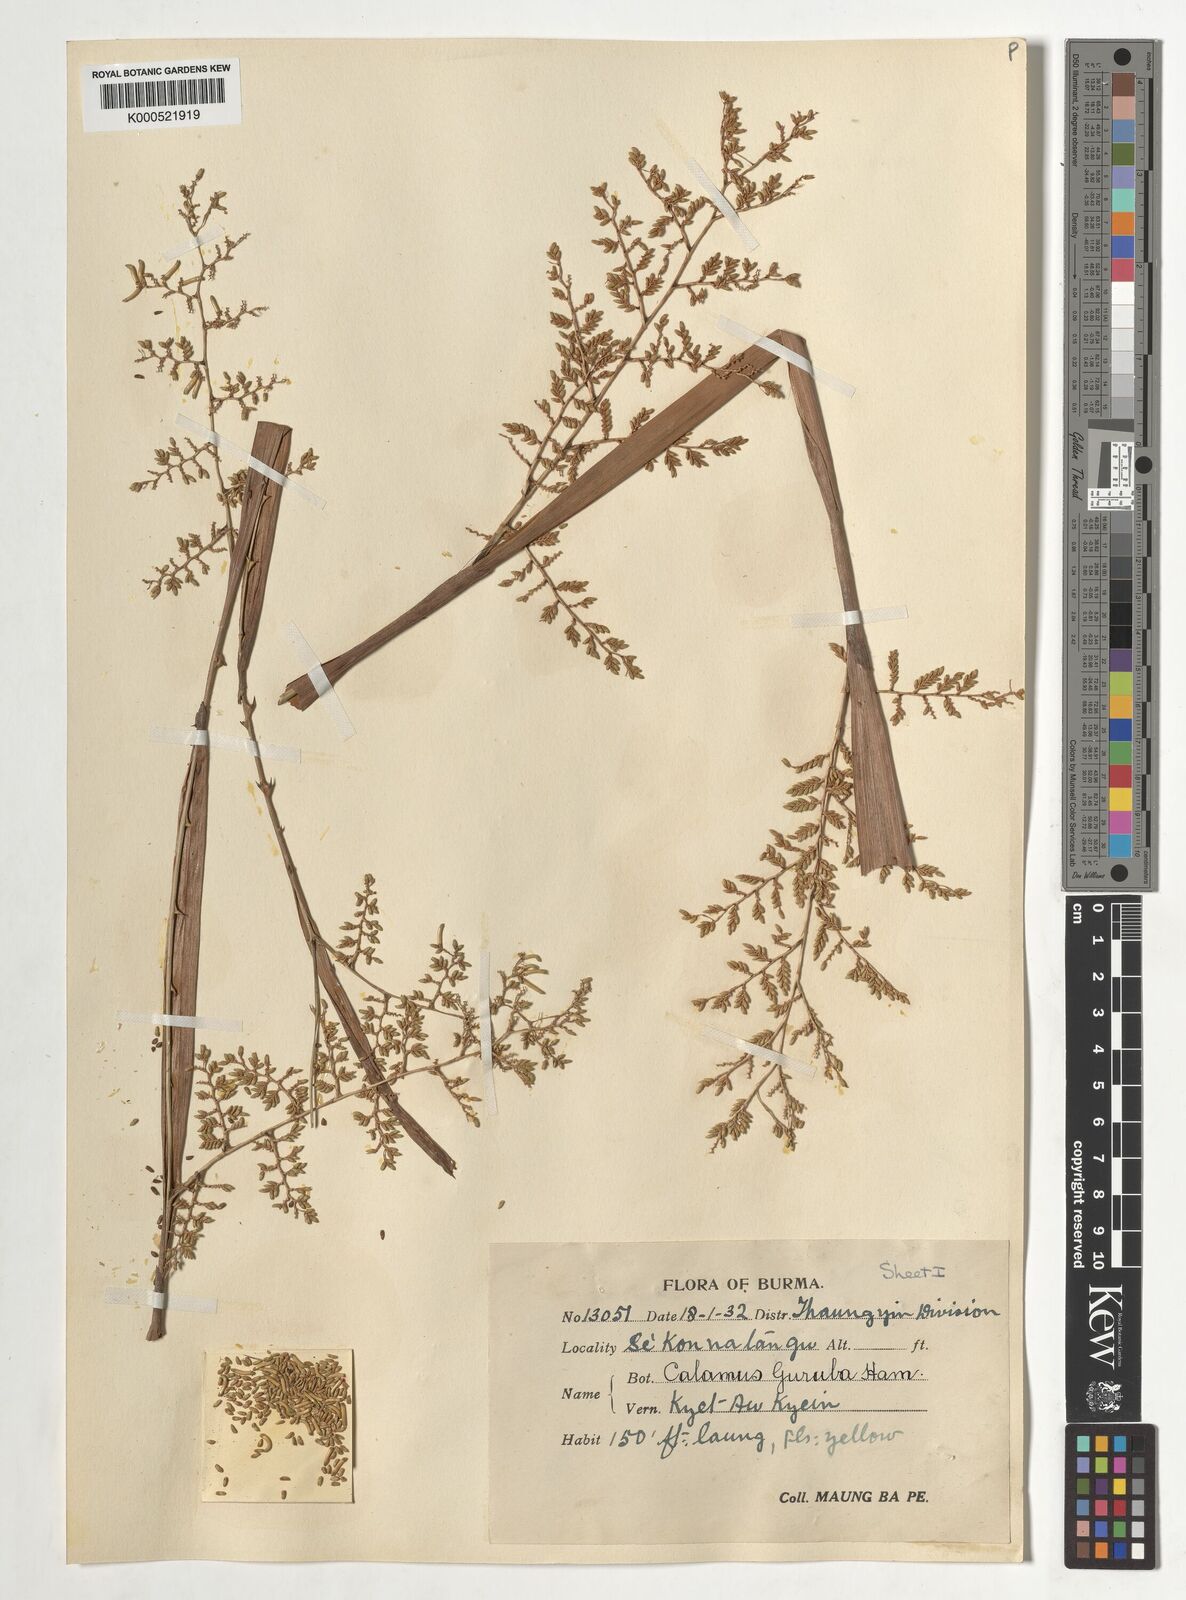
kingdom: Plantae
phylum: Tracheophyta
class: Liliopsida
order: Arecales
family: Arecaceae
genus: Calamus
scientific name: Calamus
